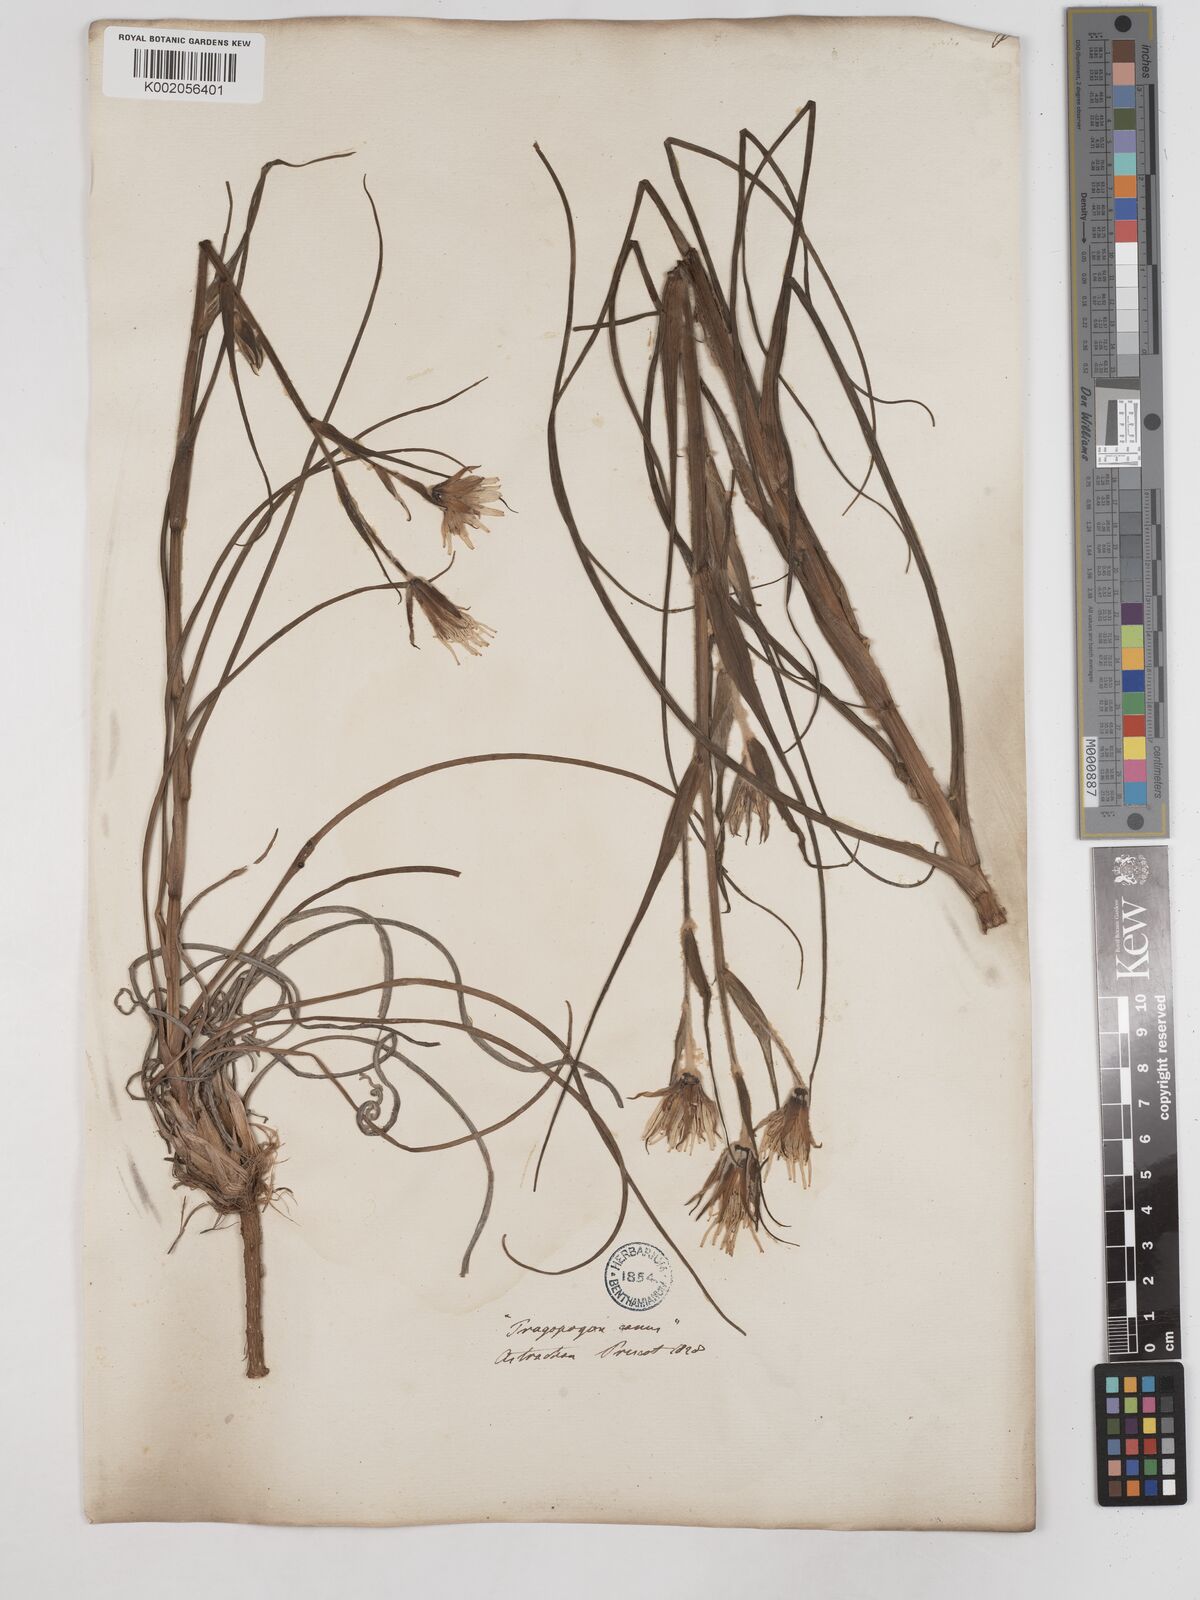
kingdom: Plantae
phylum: Tracheophyta
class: Magnoliopsida
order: Asterales
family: Asteraceae
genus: Tragopogon
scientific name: Tragopogon brevirostris
